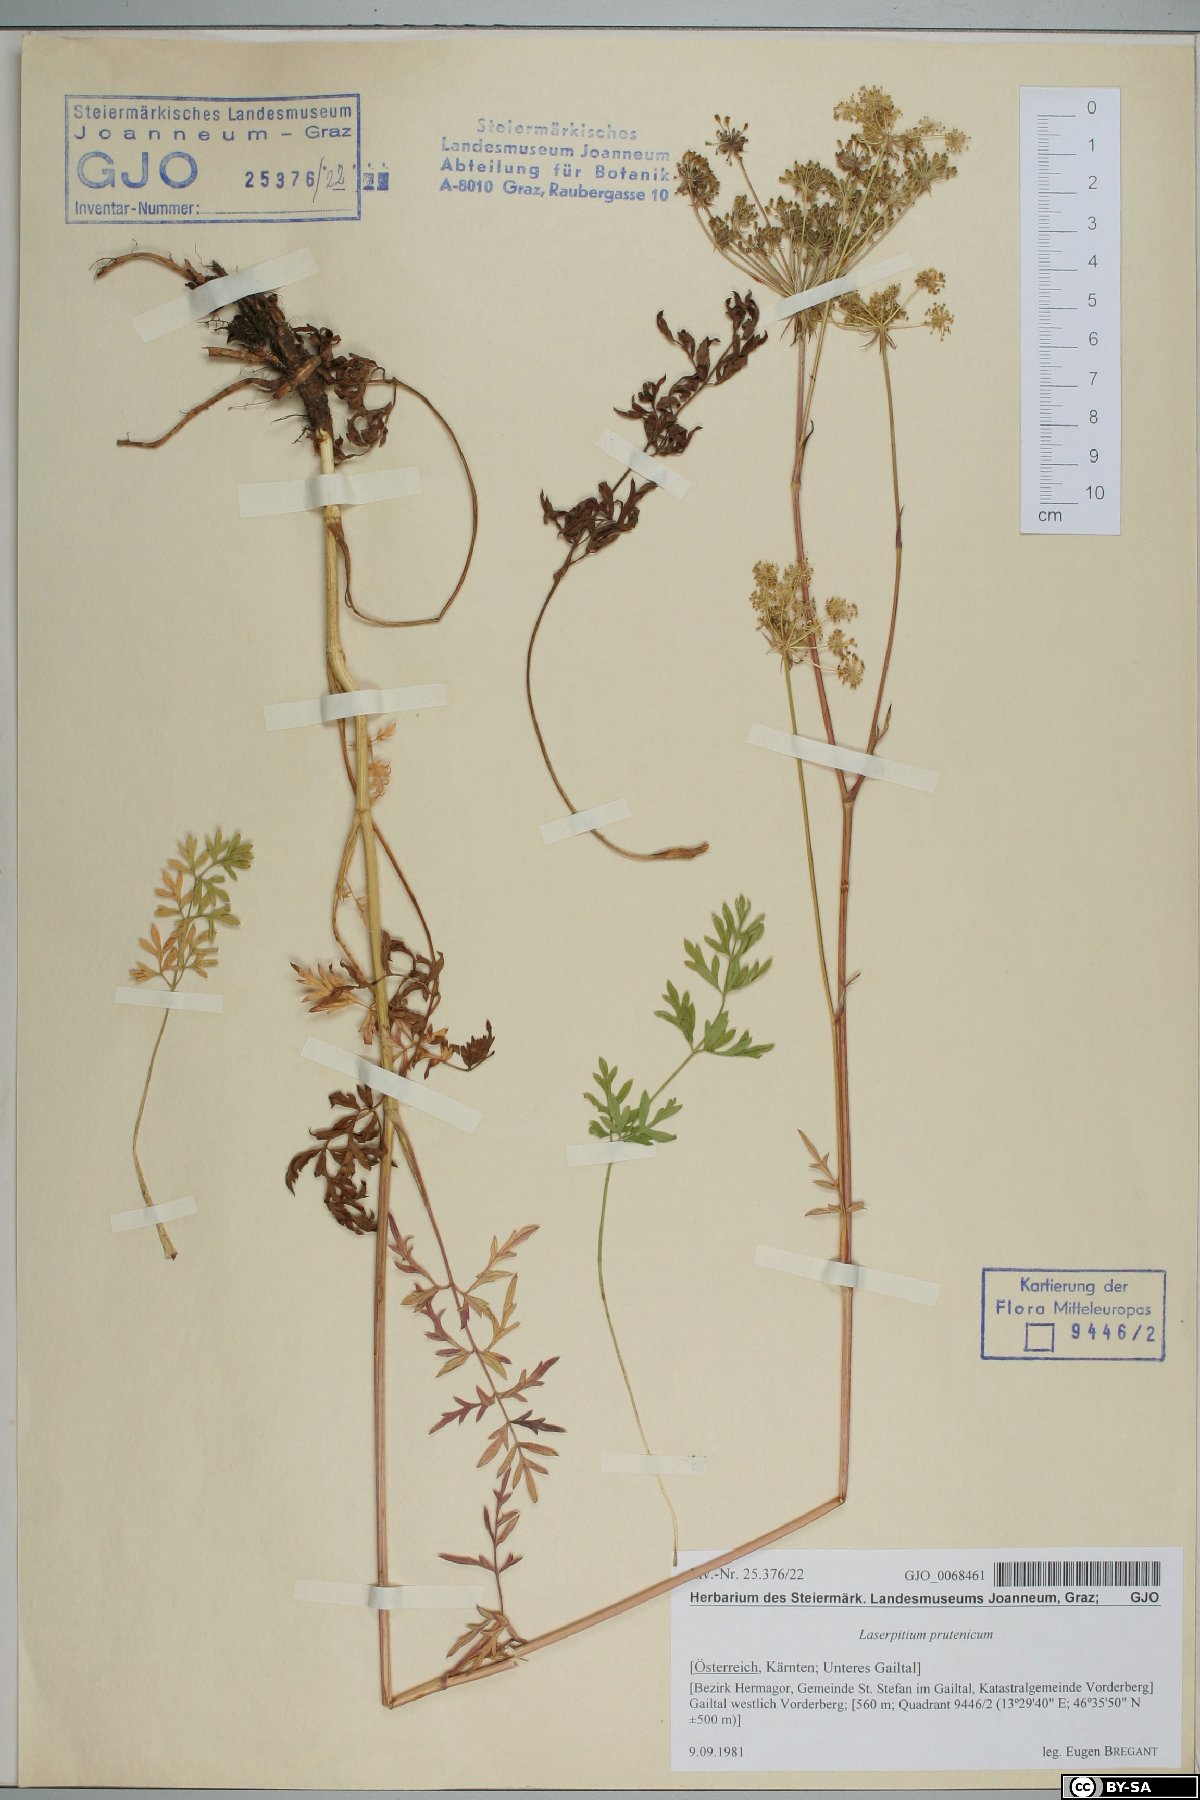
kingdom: Plantae
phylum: Tracheophyta
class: Magnoliopsida
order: Apiales
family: Apiaceae
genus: Silphiodaucus
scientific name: Silphiodaucus prutenicus
